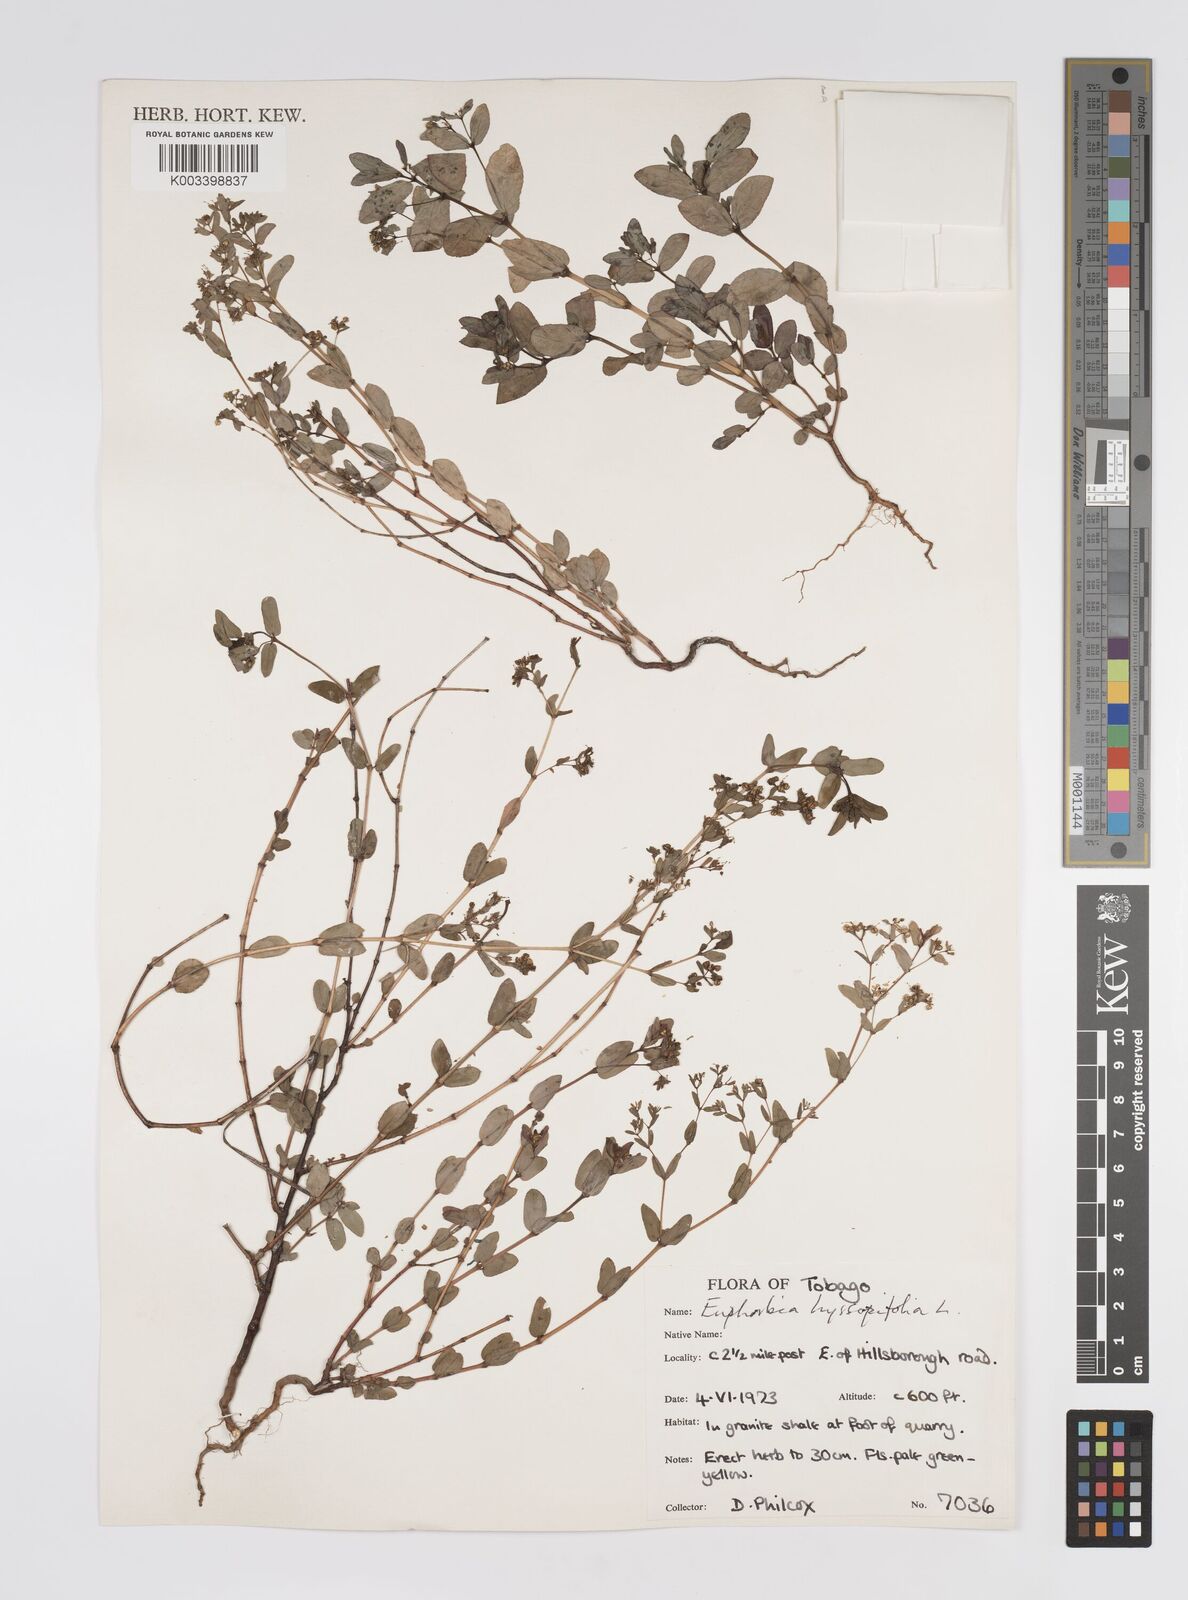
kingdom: Plantae
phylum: Tracheophyta
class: Magnoliopsida
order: Malpighiales
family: Euphorbiaceae
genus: Euphorbia
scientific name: Euphorbia hyssopifolia
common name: Hyssopleaf sandmat
